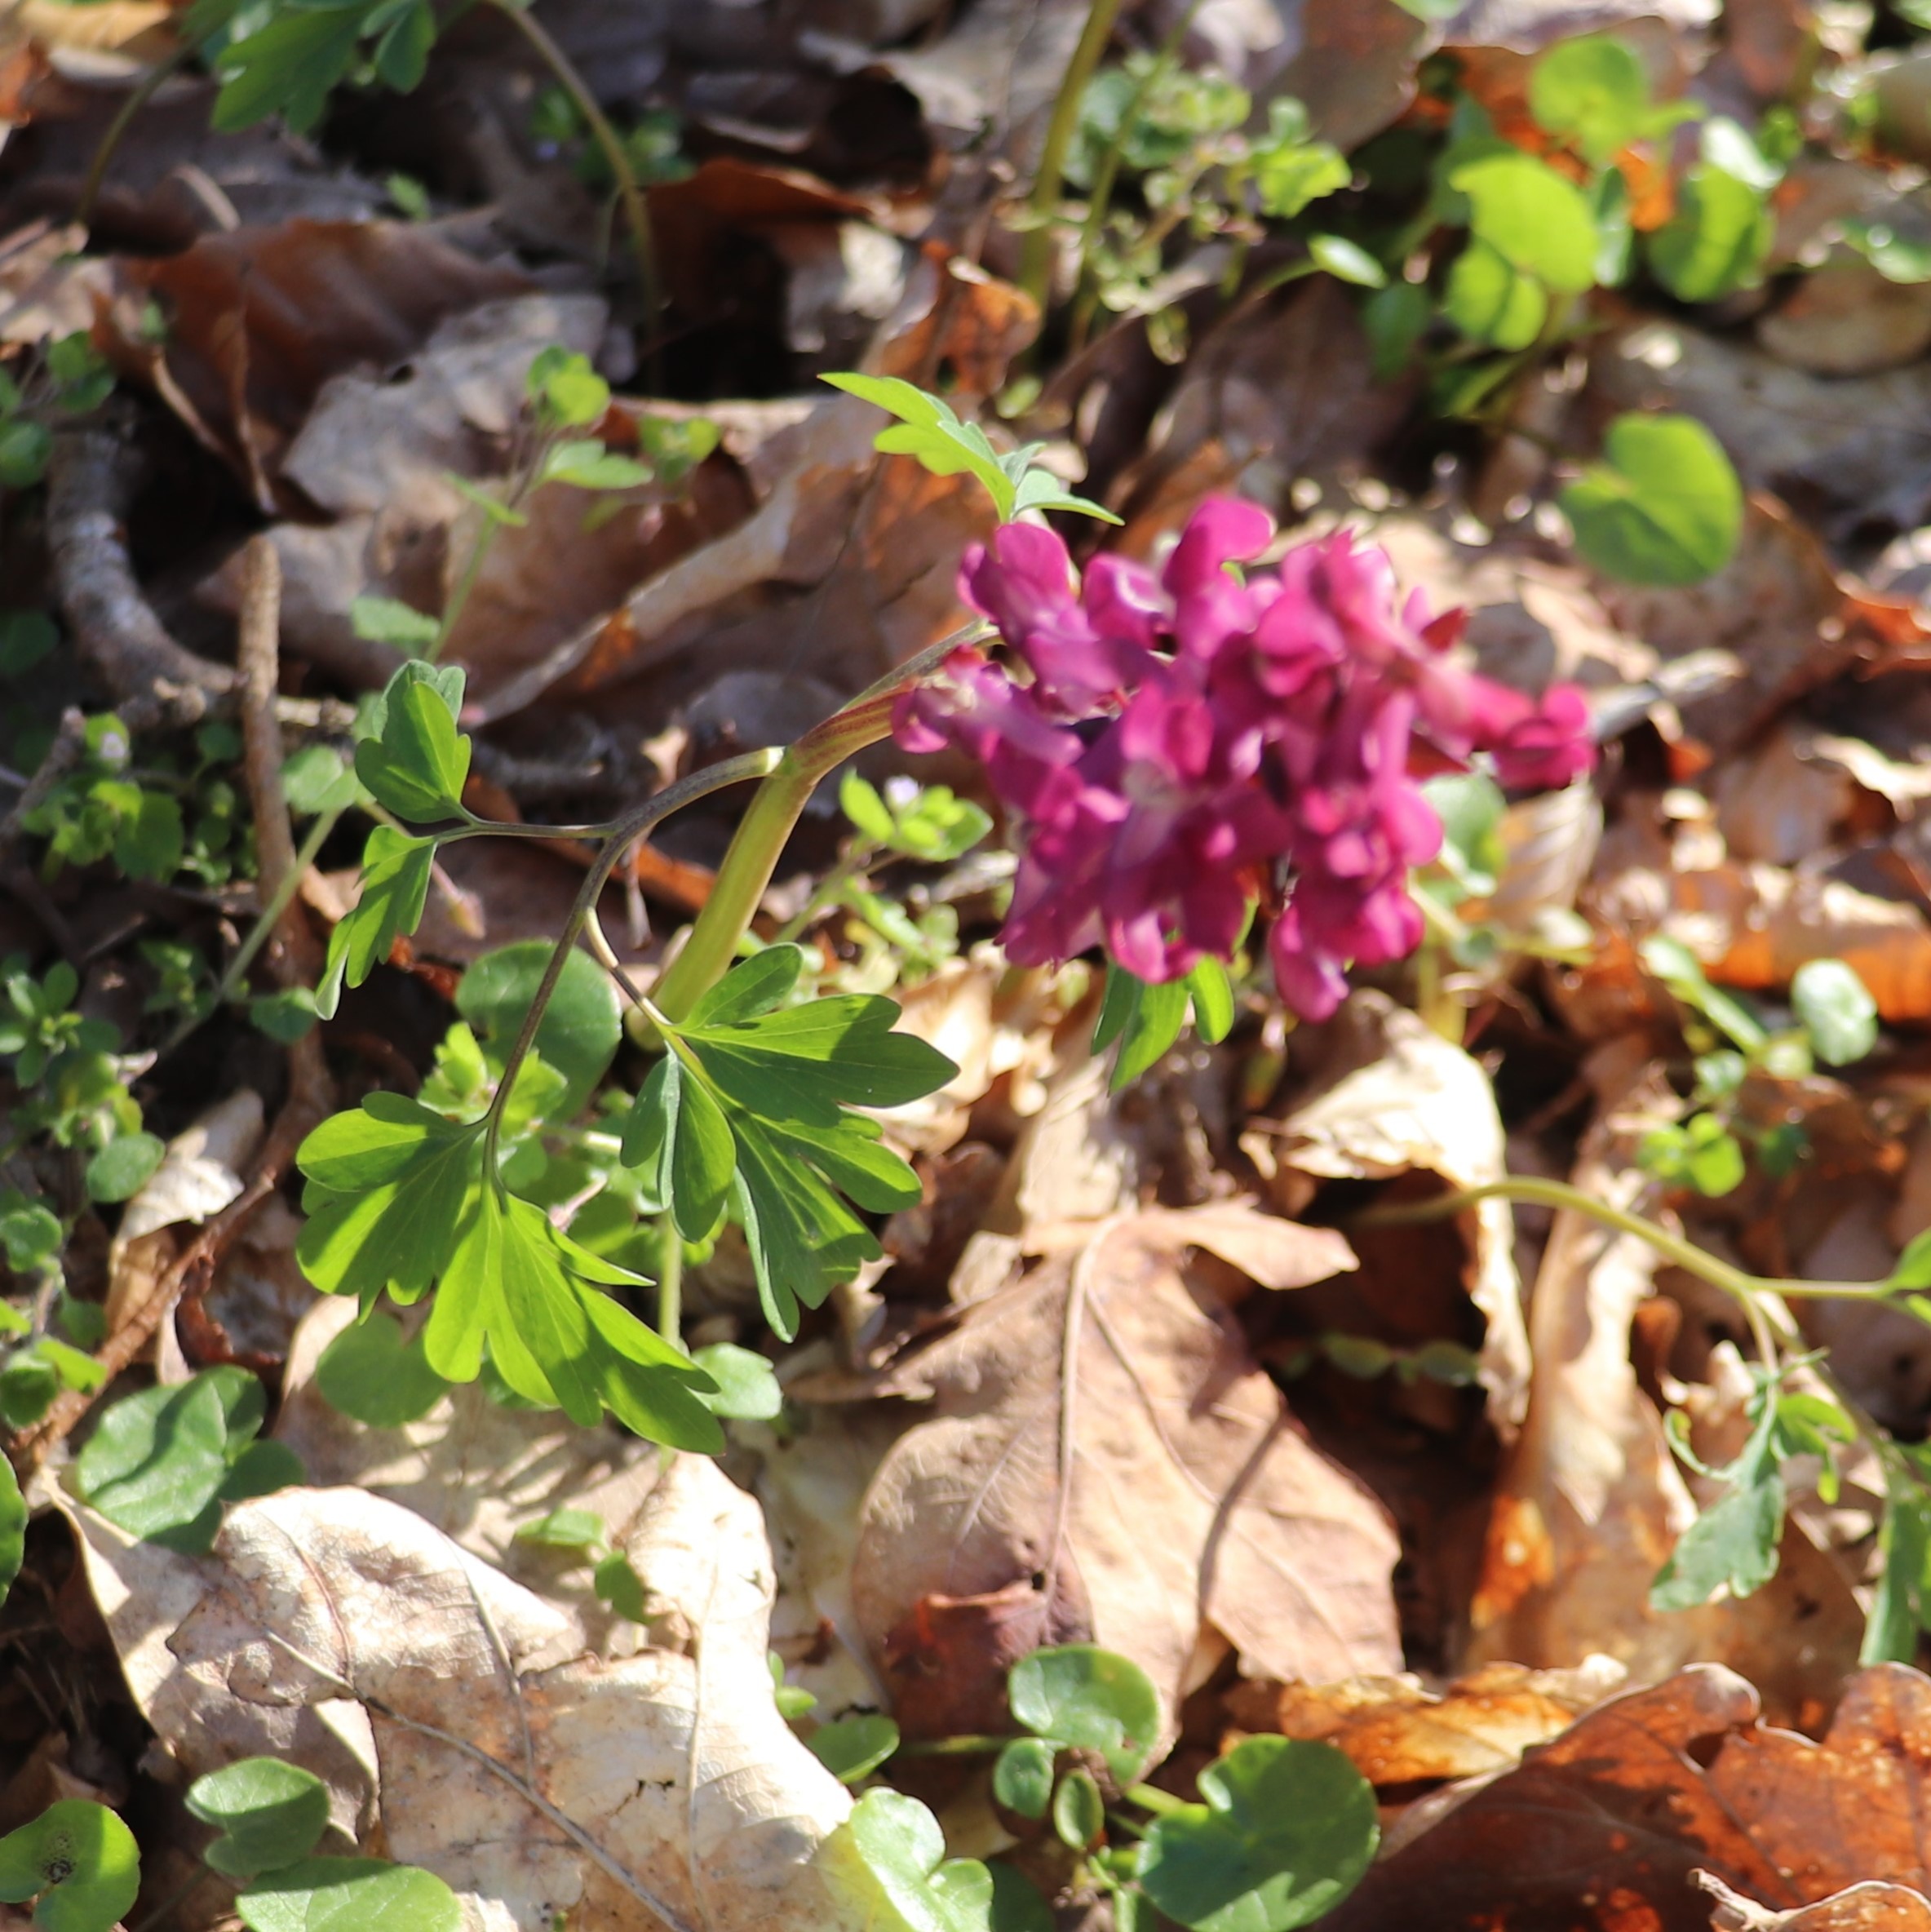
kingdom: Plantae
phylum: Tracheophyta
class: Magnoliopsida
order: Ranunculales
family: Papaveraceae
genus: Corydalis
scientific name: Corydalis cava
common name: Hulrodet lærkespore
